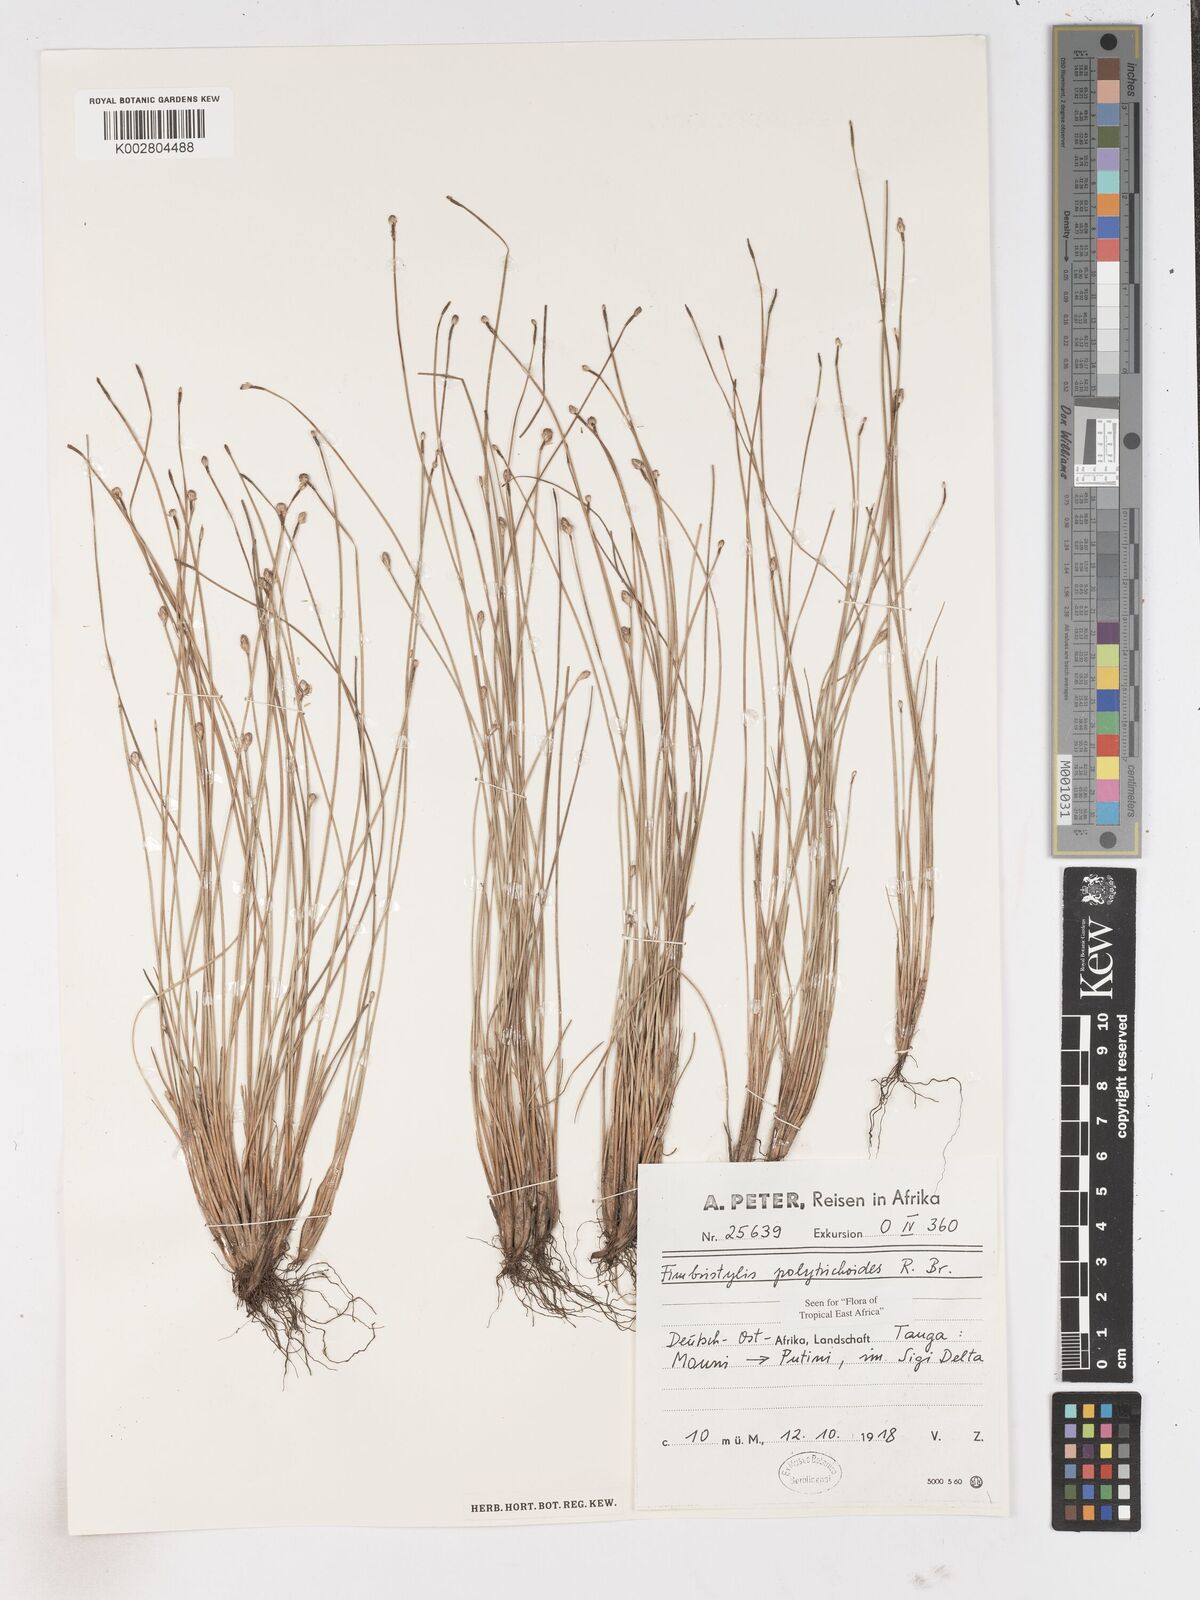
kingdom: Plantae
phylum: Tracheophyta
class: Liliopsida
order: Poales
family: Cyperaceae
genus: Fimbristylis
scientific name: Fimbristylis polytrichoides
